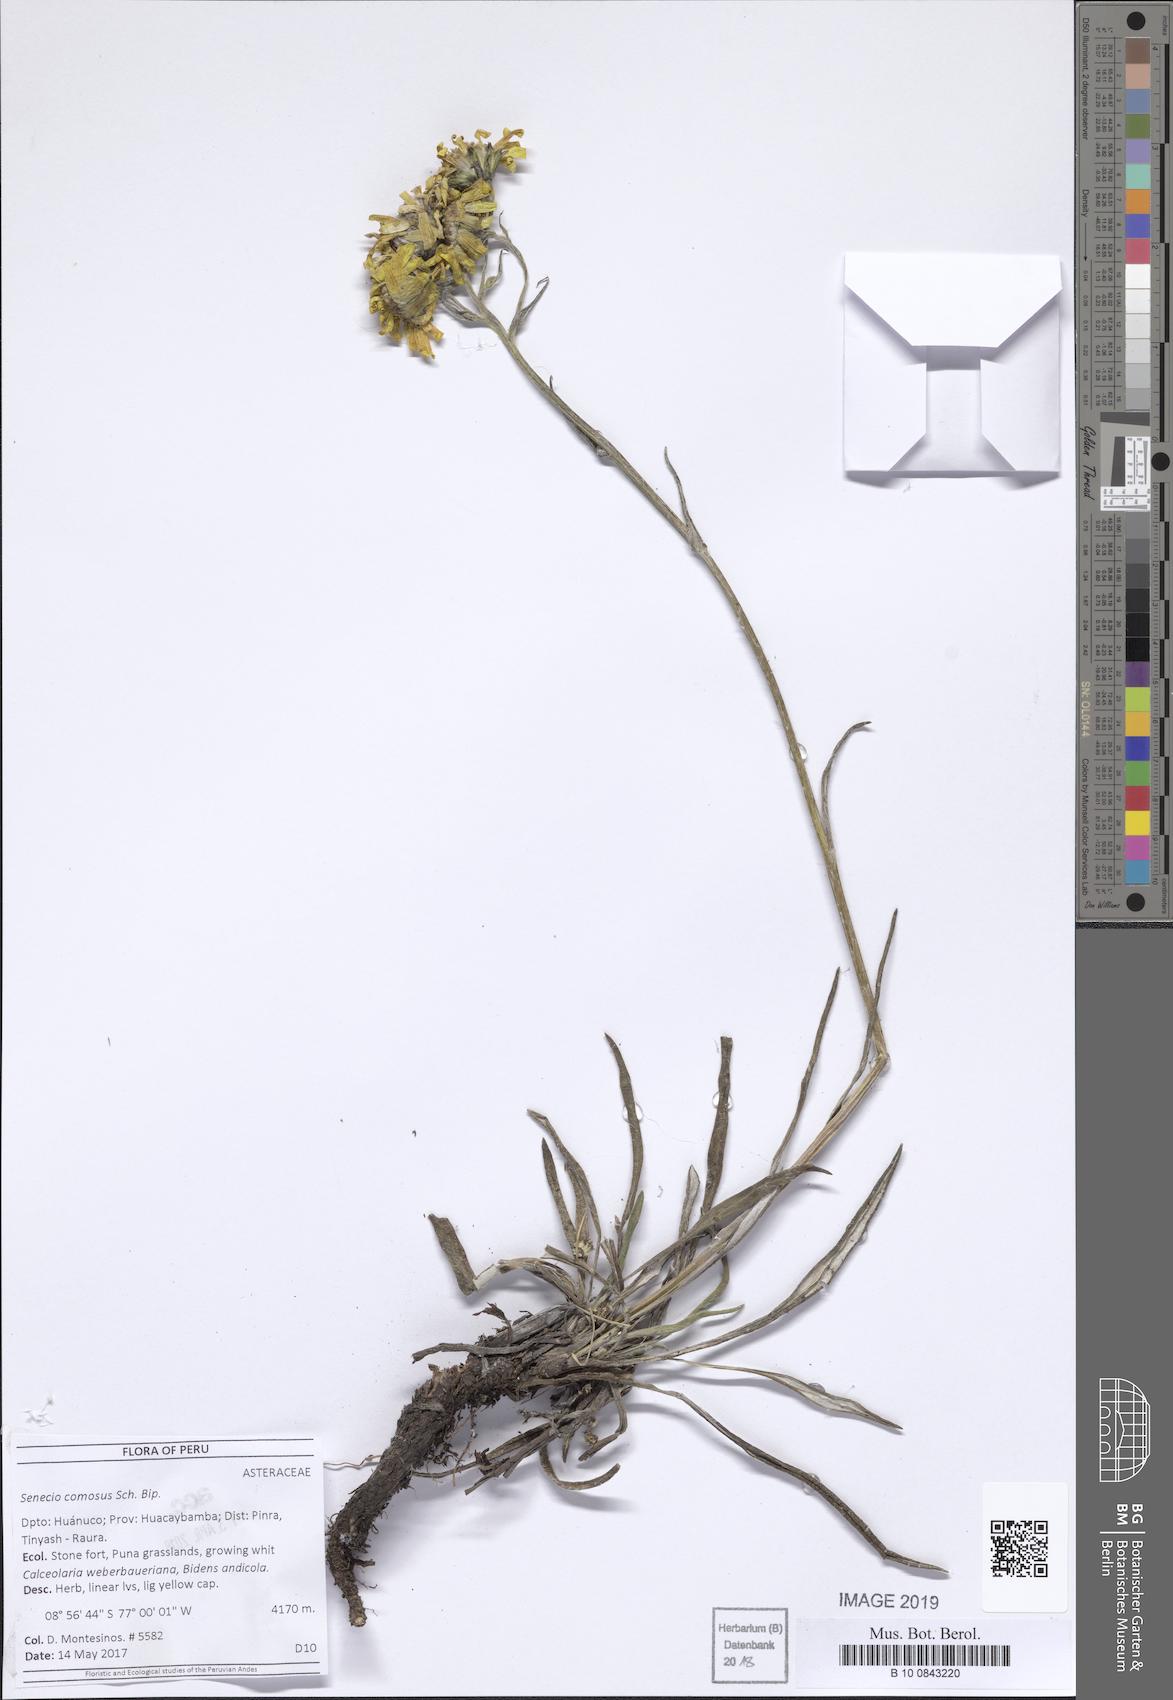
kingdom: Plantae
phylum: Tracheophyta
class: Magnoliopsida
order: Asterales
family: Asteraceae
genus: Senecio
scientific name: Senecio comosus
